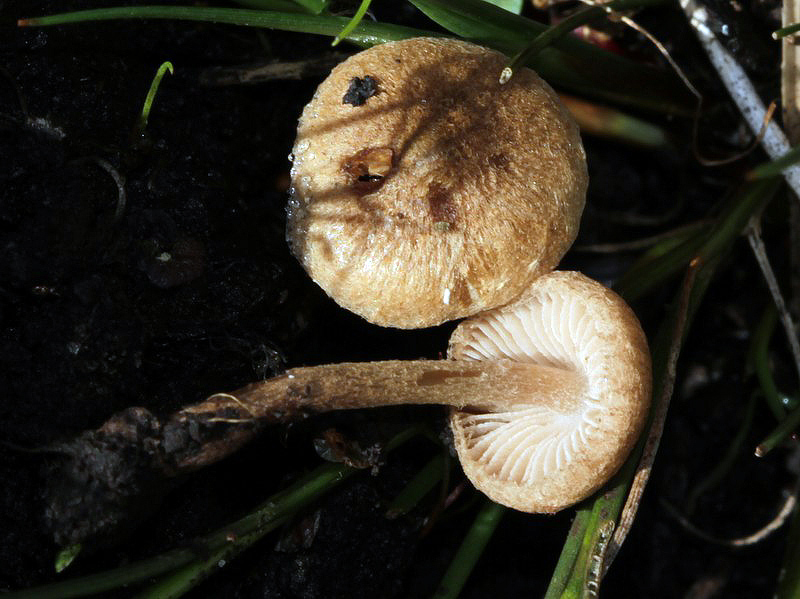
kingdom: Fungi
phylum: Basidiomycota
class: Agaricomycetes
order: Agaricales
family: Inocybaceae
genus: Inocybe
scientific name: Inocybe lacera
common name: laset trævlhat
